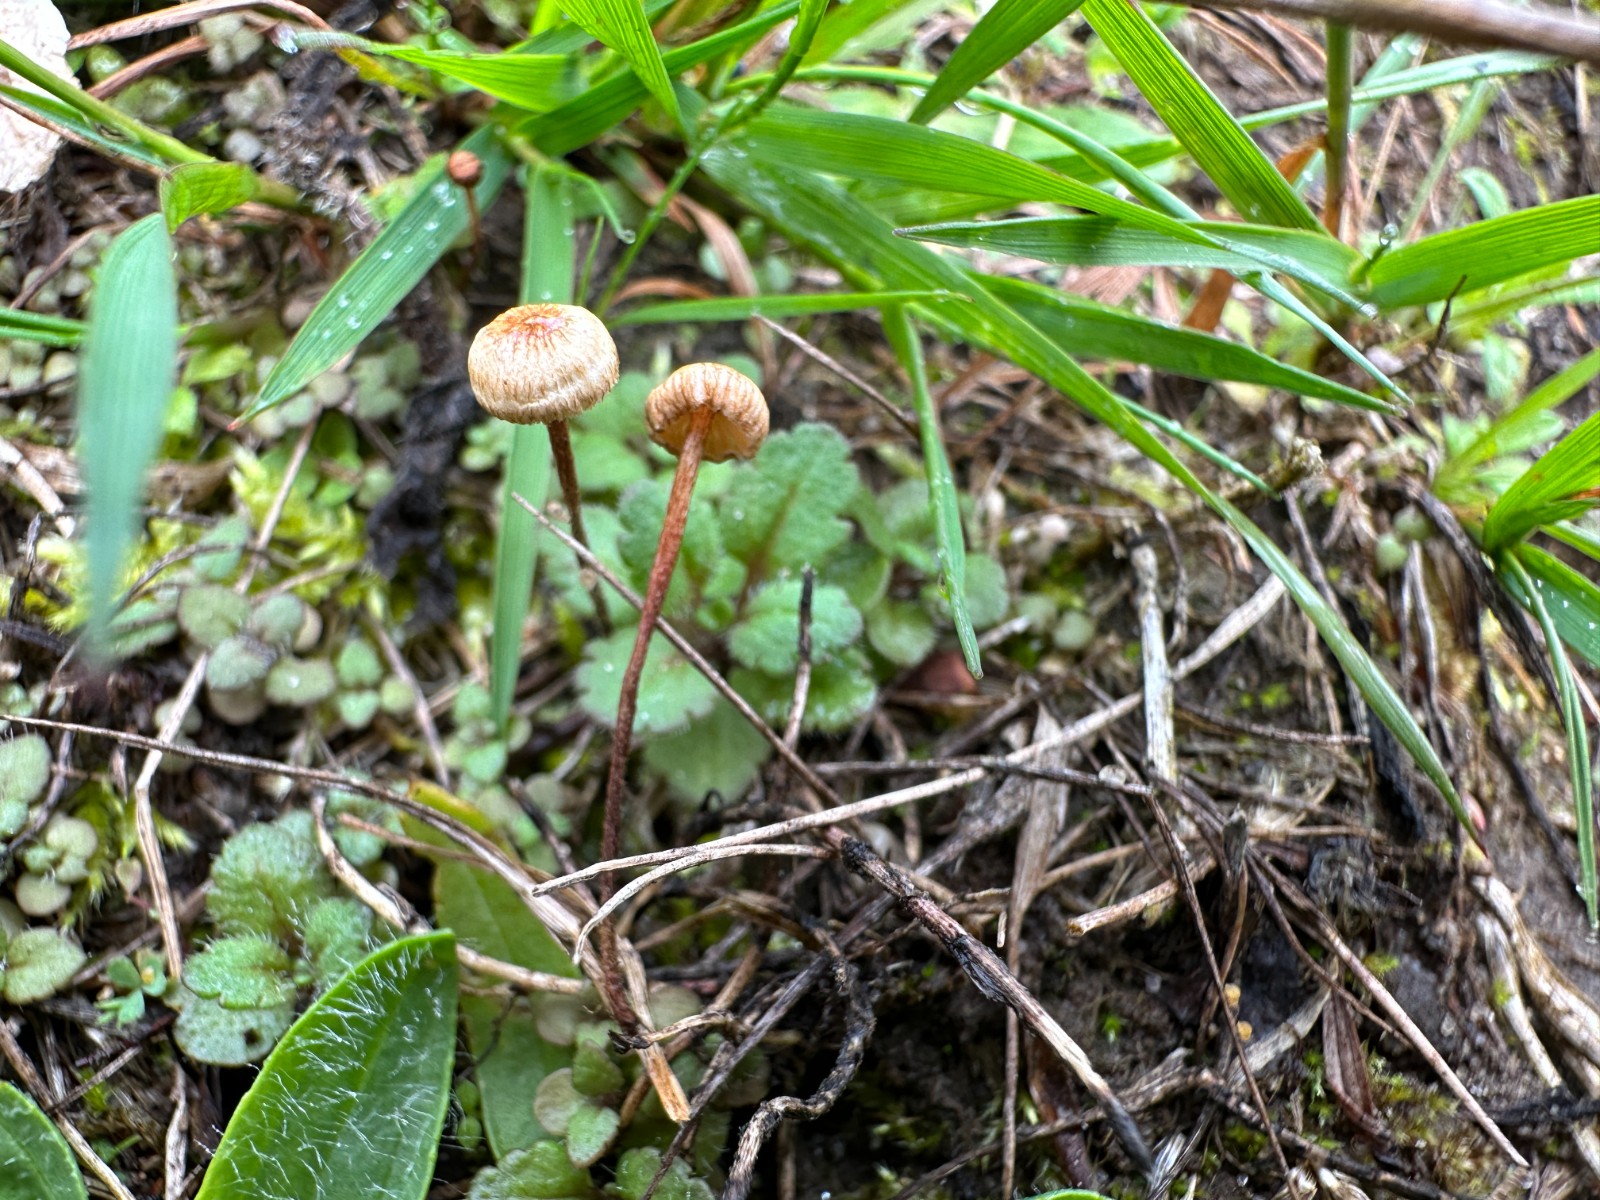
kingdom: Fungi
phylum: Basidiomycota
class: Agaricomycetes
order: Agaricales
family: Marasmiaceae
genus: Crinipellis
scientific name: Crinipellis scabella
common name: børstefod
